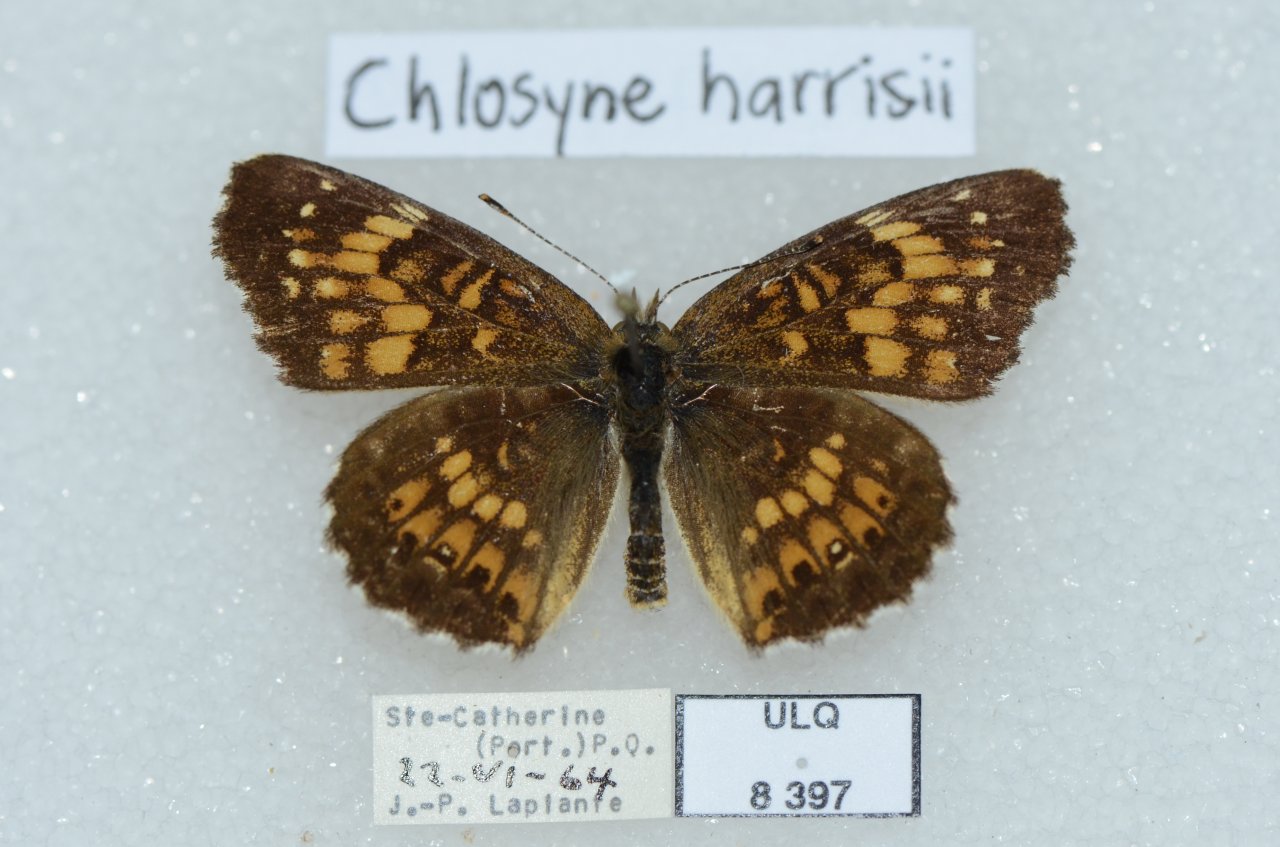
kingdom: Animalia
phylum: Arthropoda
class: Insecta
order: Lepidoptera
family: Nymphalidae
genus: Chlosyne
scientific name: Chlosyne harrisii
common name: Harris's Checkerspot
